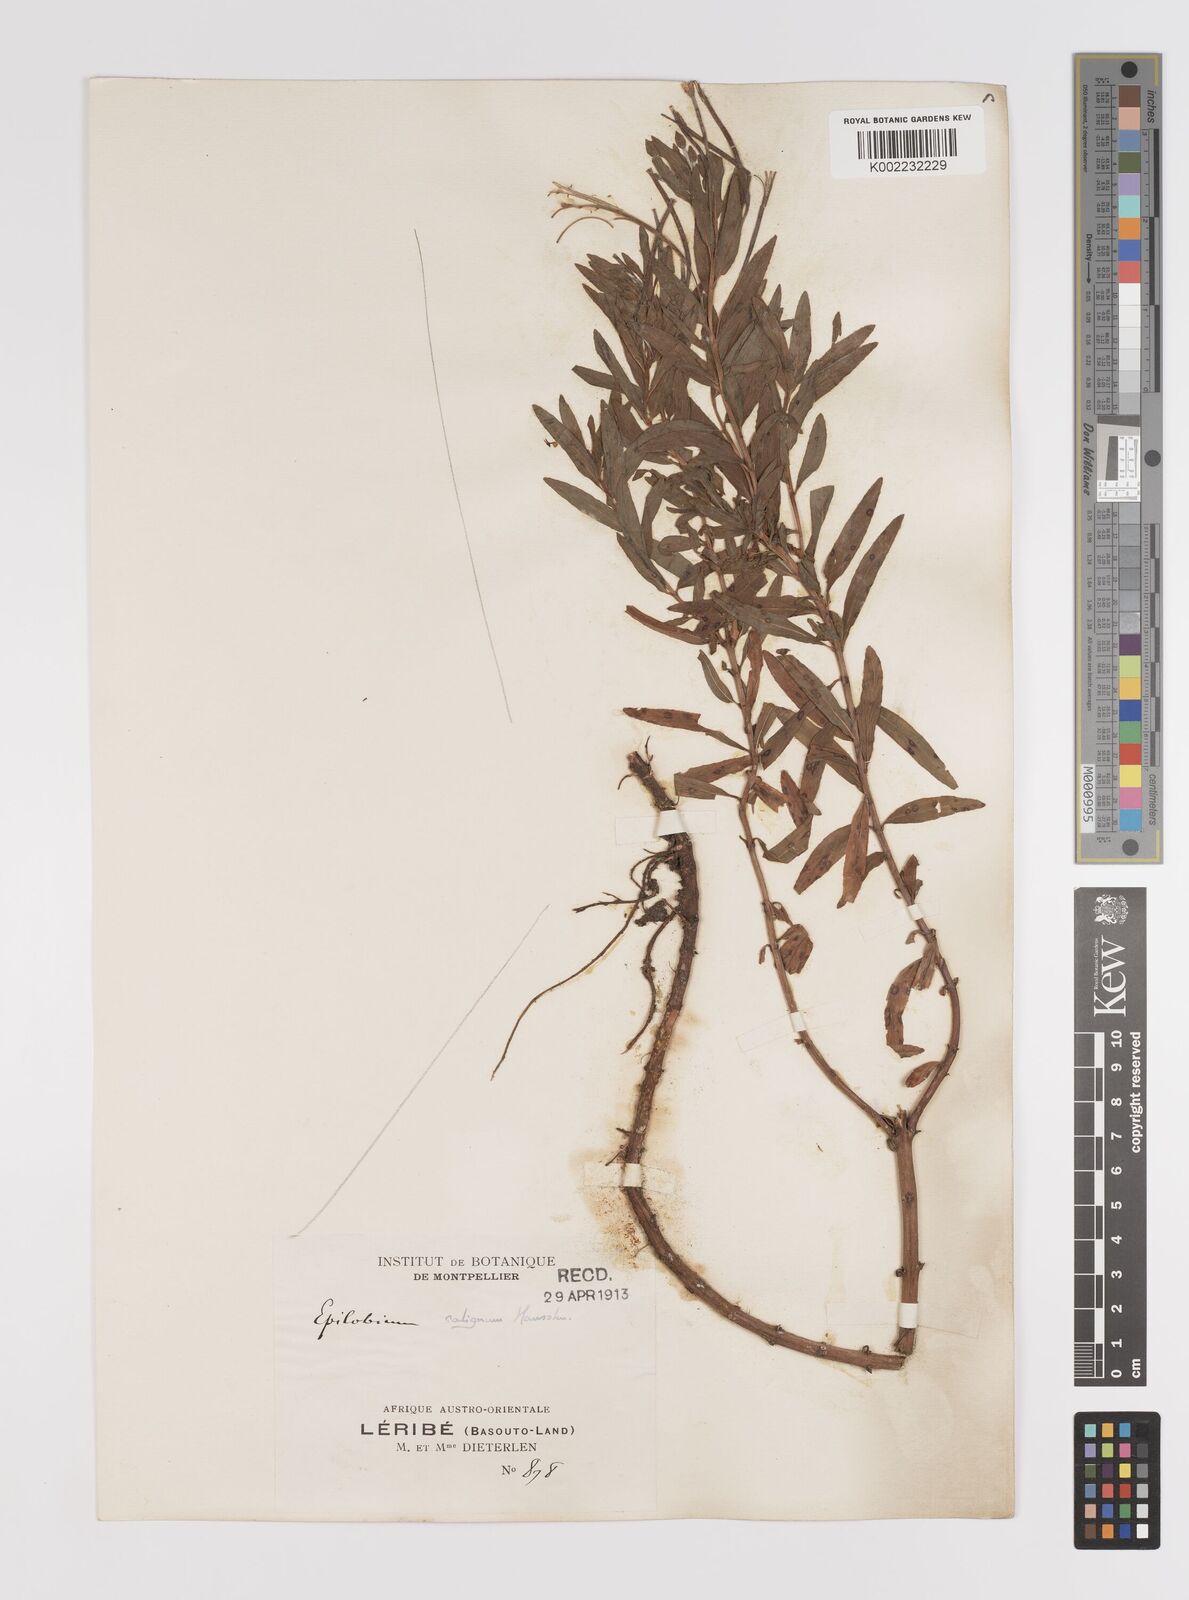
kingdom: Plantae
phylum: Tracheophyta
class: Magnoliopsida
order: Myrtales
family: Onagraceae
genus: Epilobium
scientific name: Epilobium salignum
